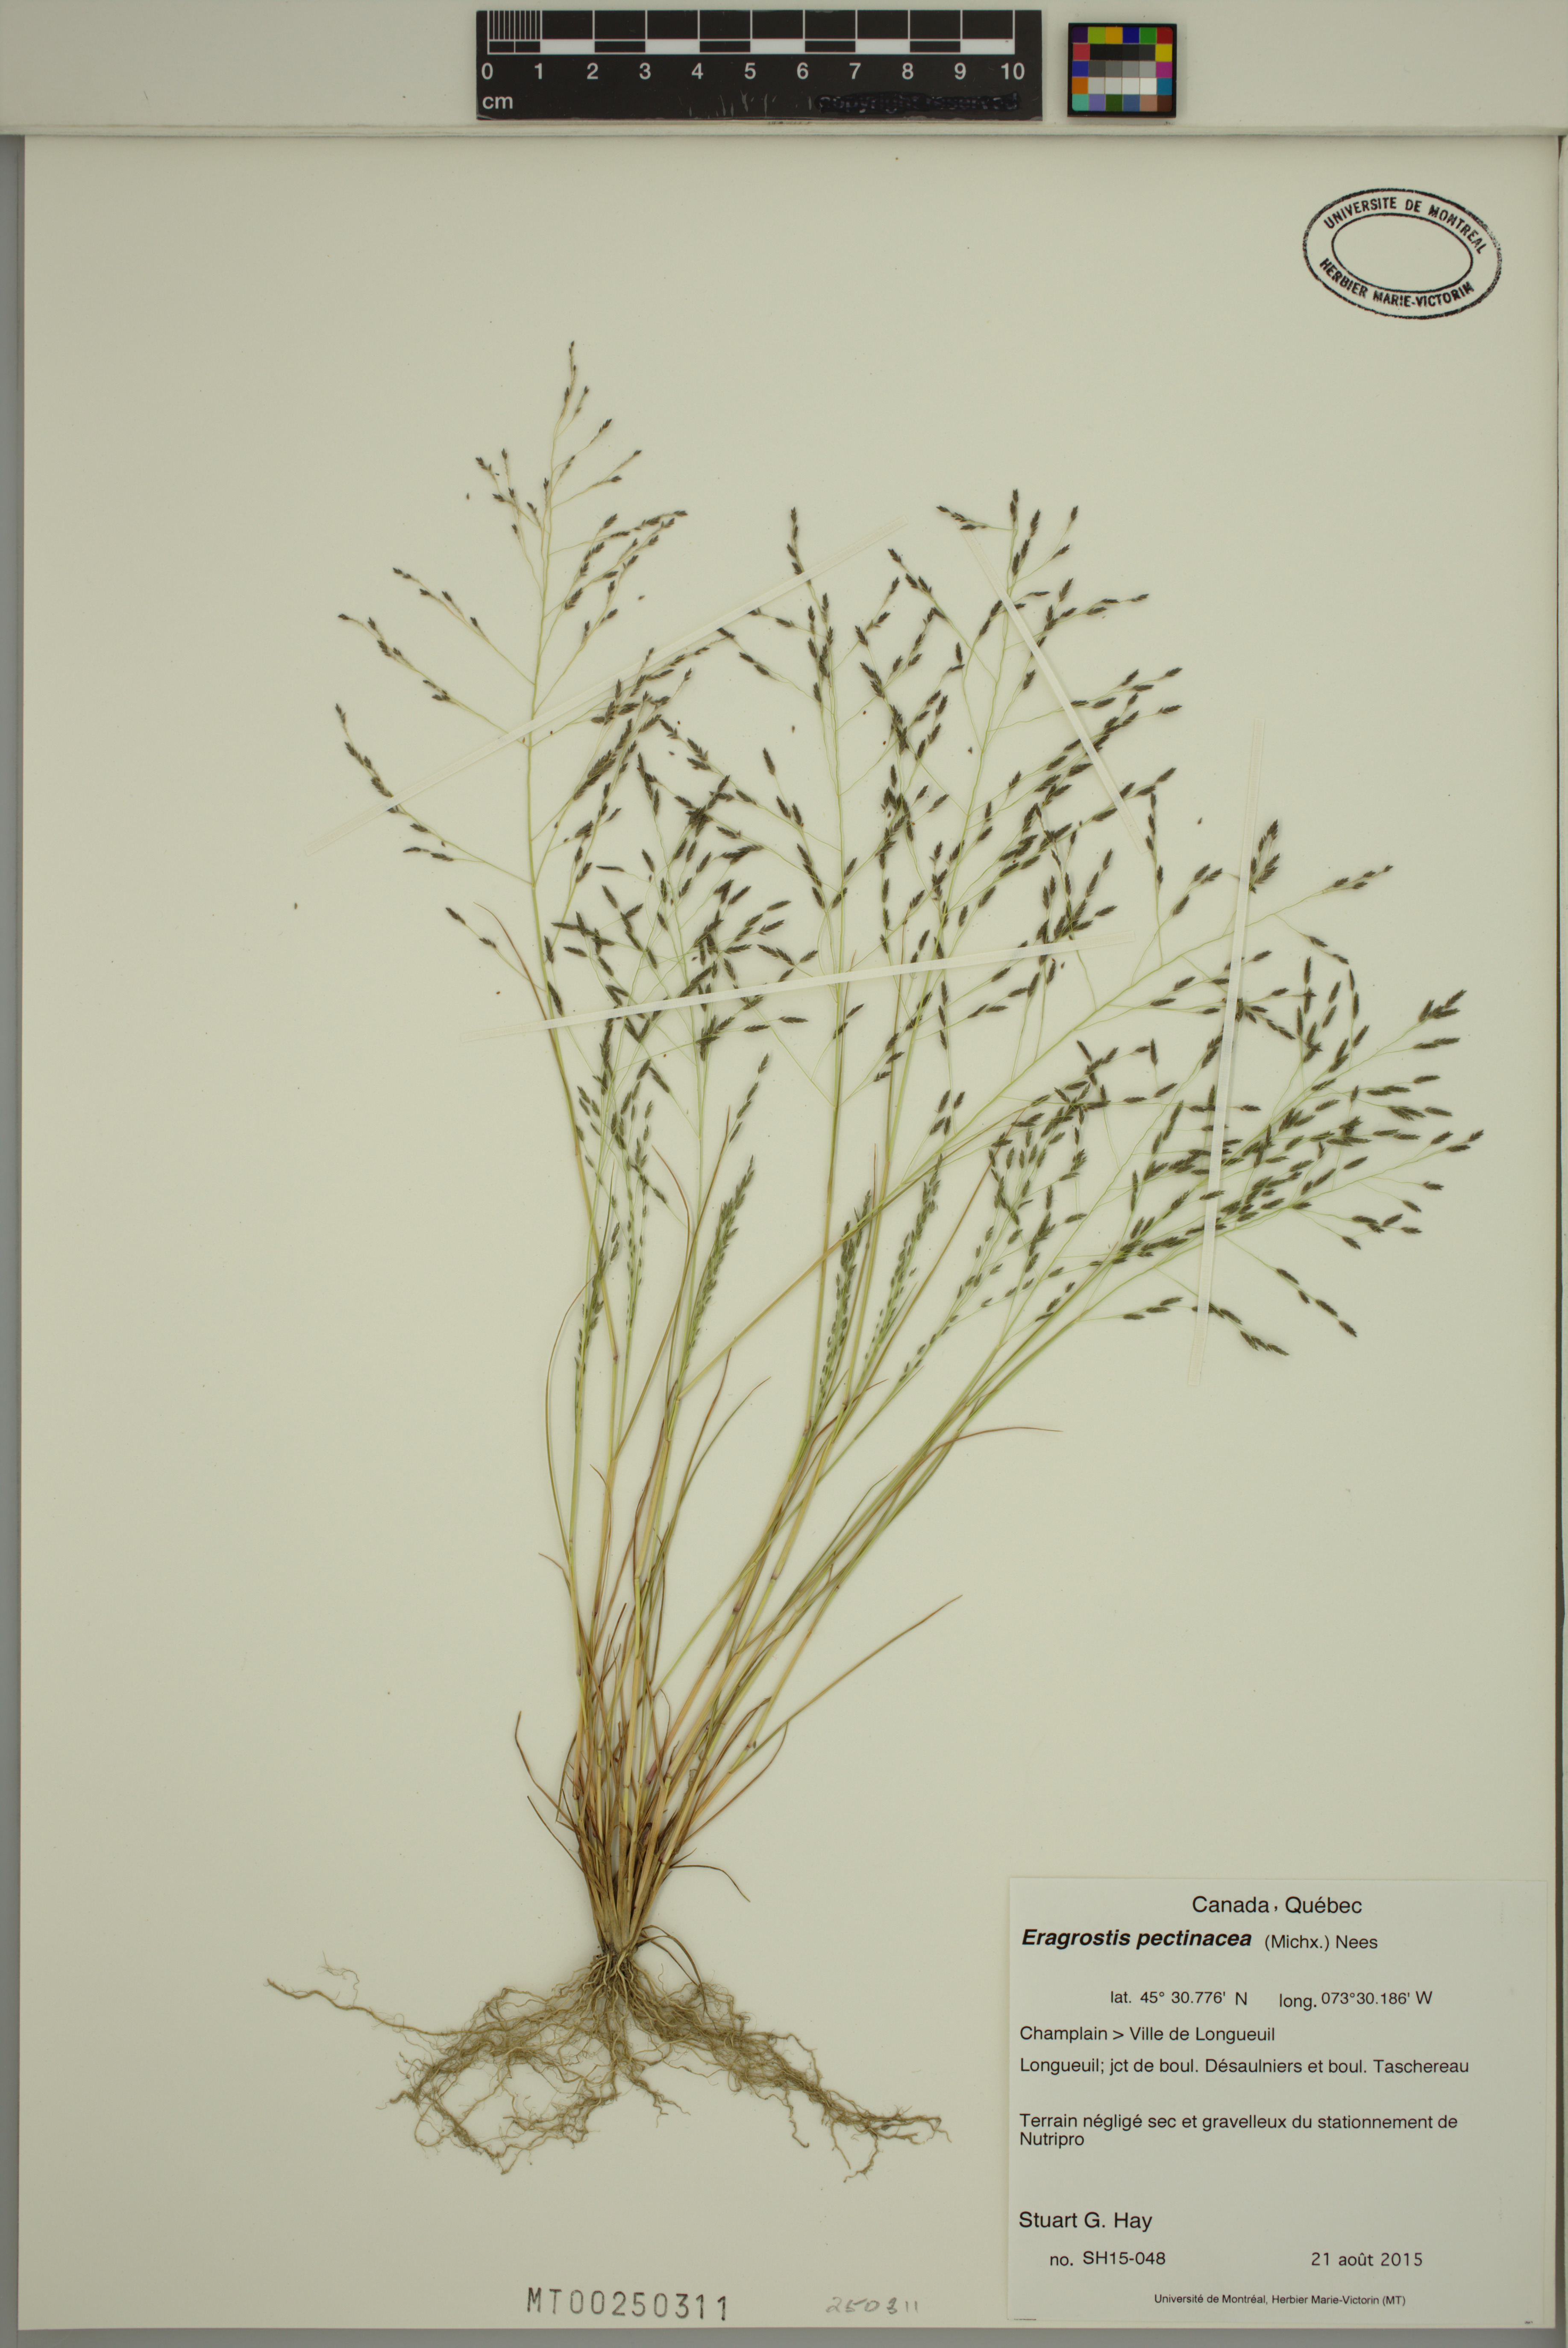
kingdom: Plantae
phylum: Tracheophyta
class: Liliopsida
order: Poales
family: Poaceae
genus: Eragrostis
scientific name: Eragrostis pectinacea
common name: Tufted lovegrass
